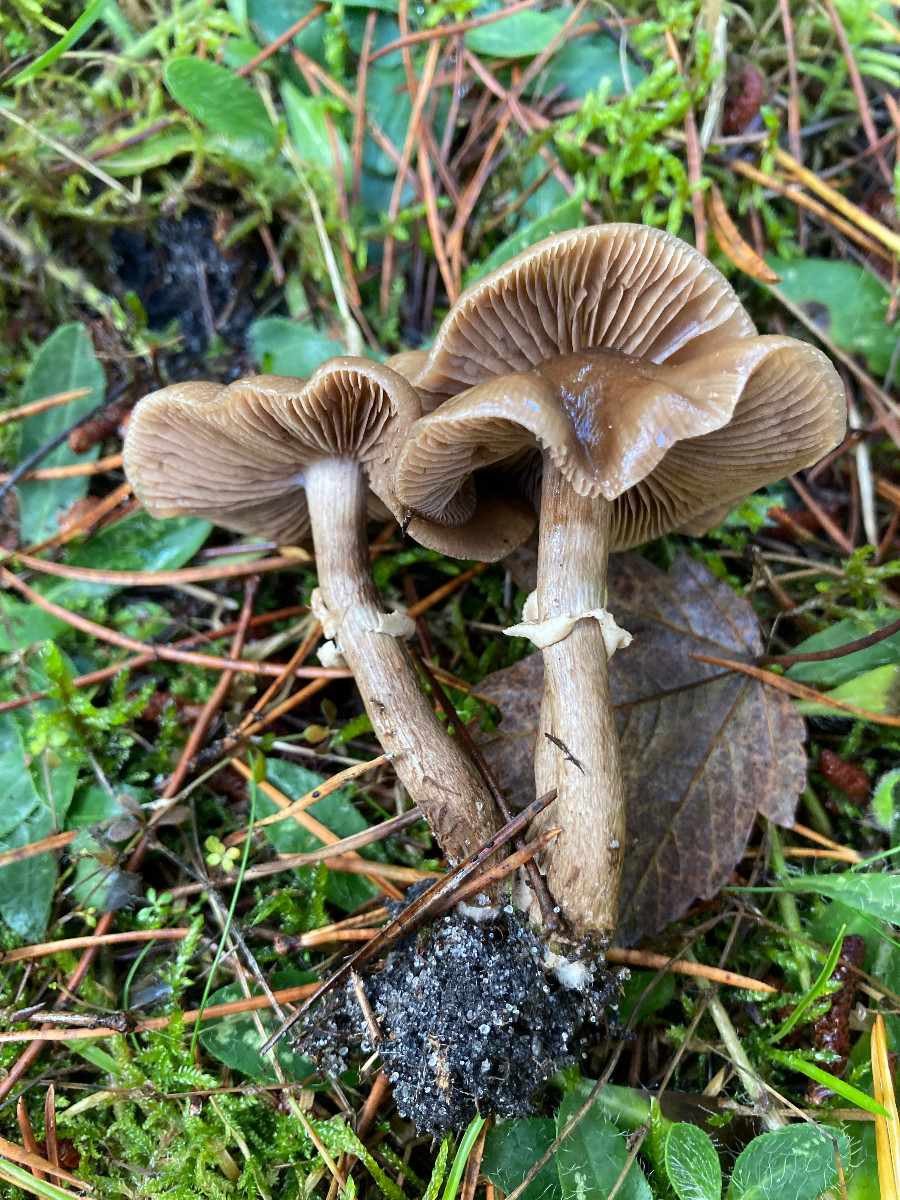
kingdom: Fungi
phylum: Basidiomycota
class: Agaricomycetes
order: Agaricales
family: Tubariaceae
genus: Cyclocybe
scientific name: Cyclocybe erebia
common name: mørk agerhat
